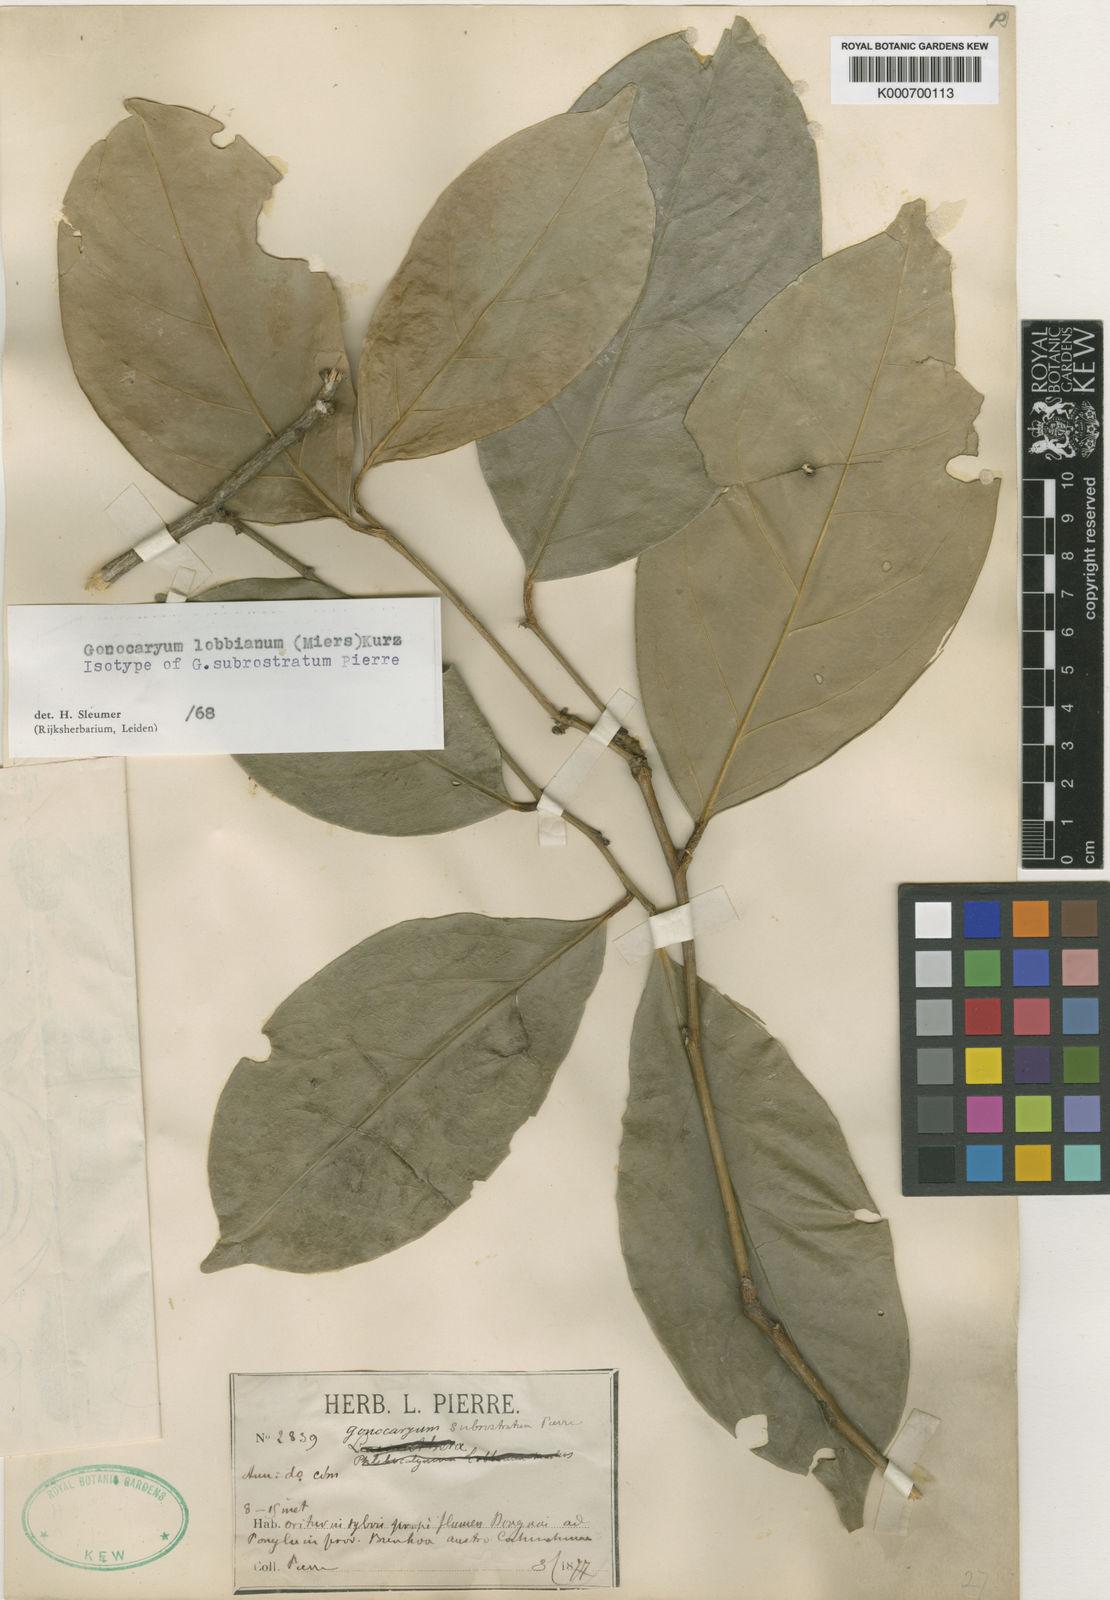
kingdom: Plantae
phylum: Tracheophyta
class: Magnoliopsida
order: Cardiopteridales
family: Cardiopteridaceae
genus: Gonocaryum
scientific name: Gonocaryum lobbianum
